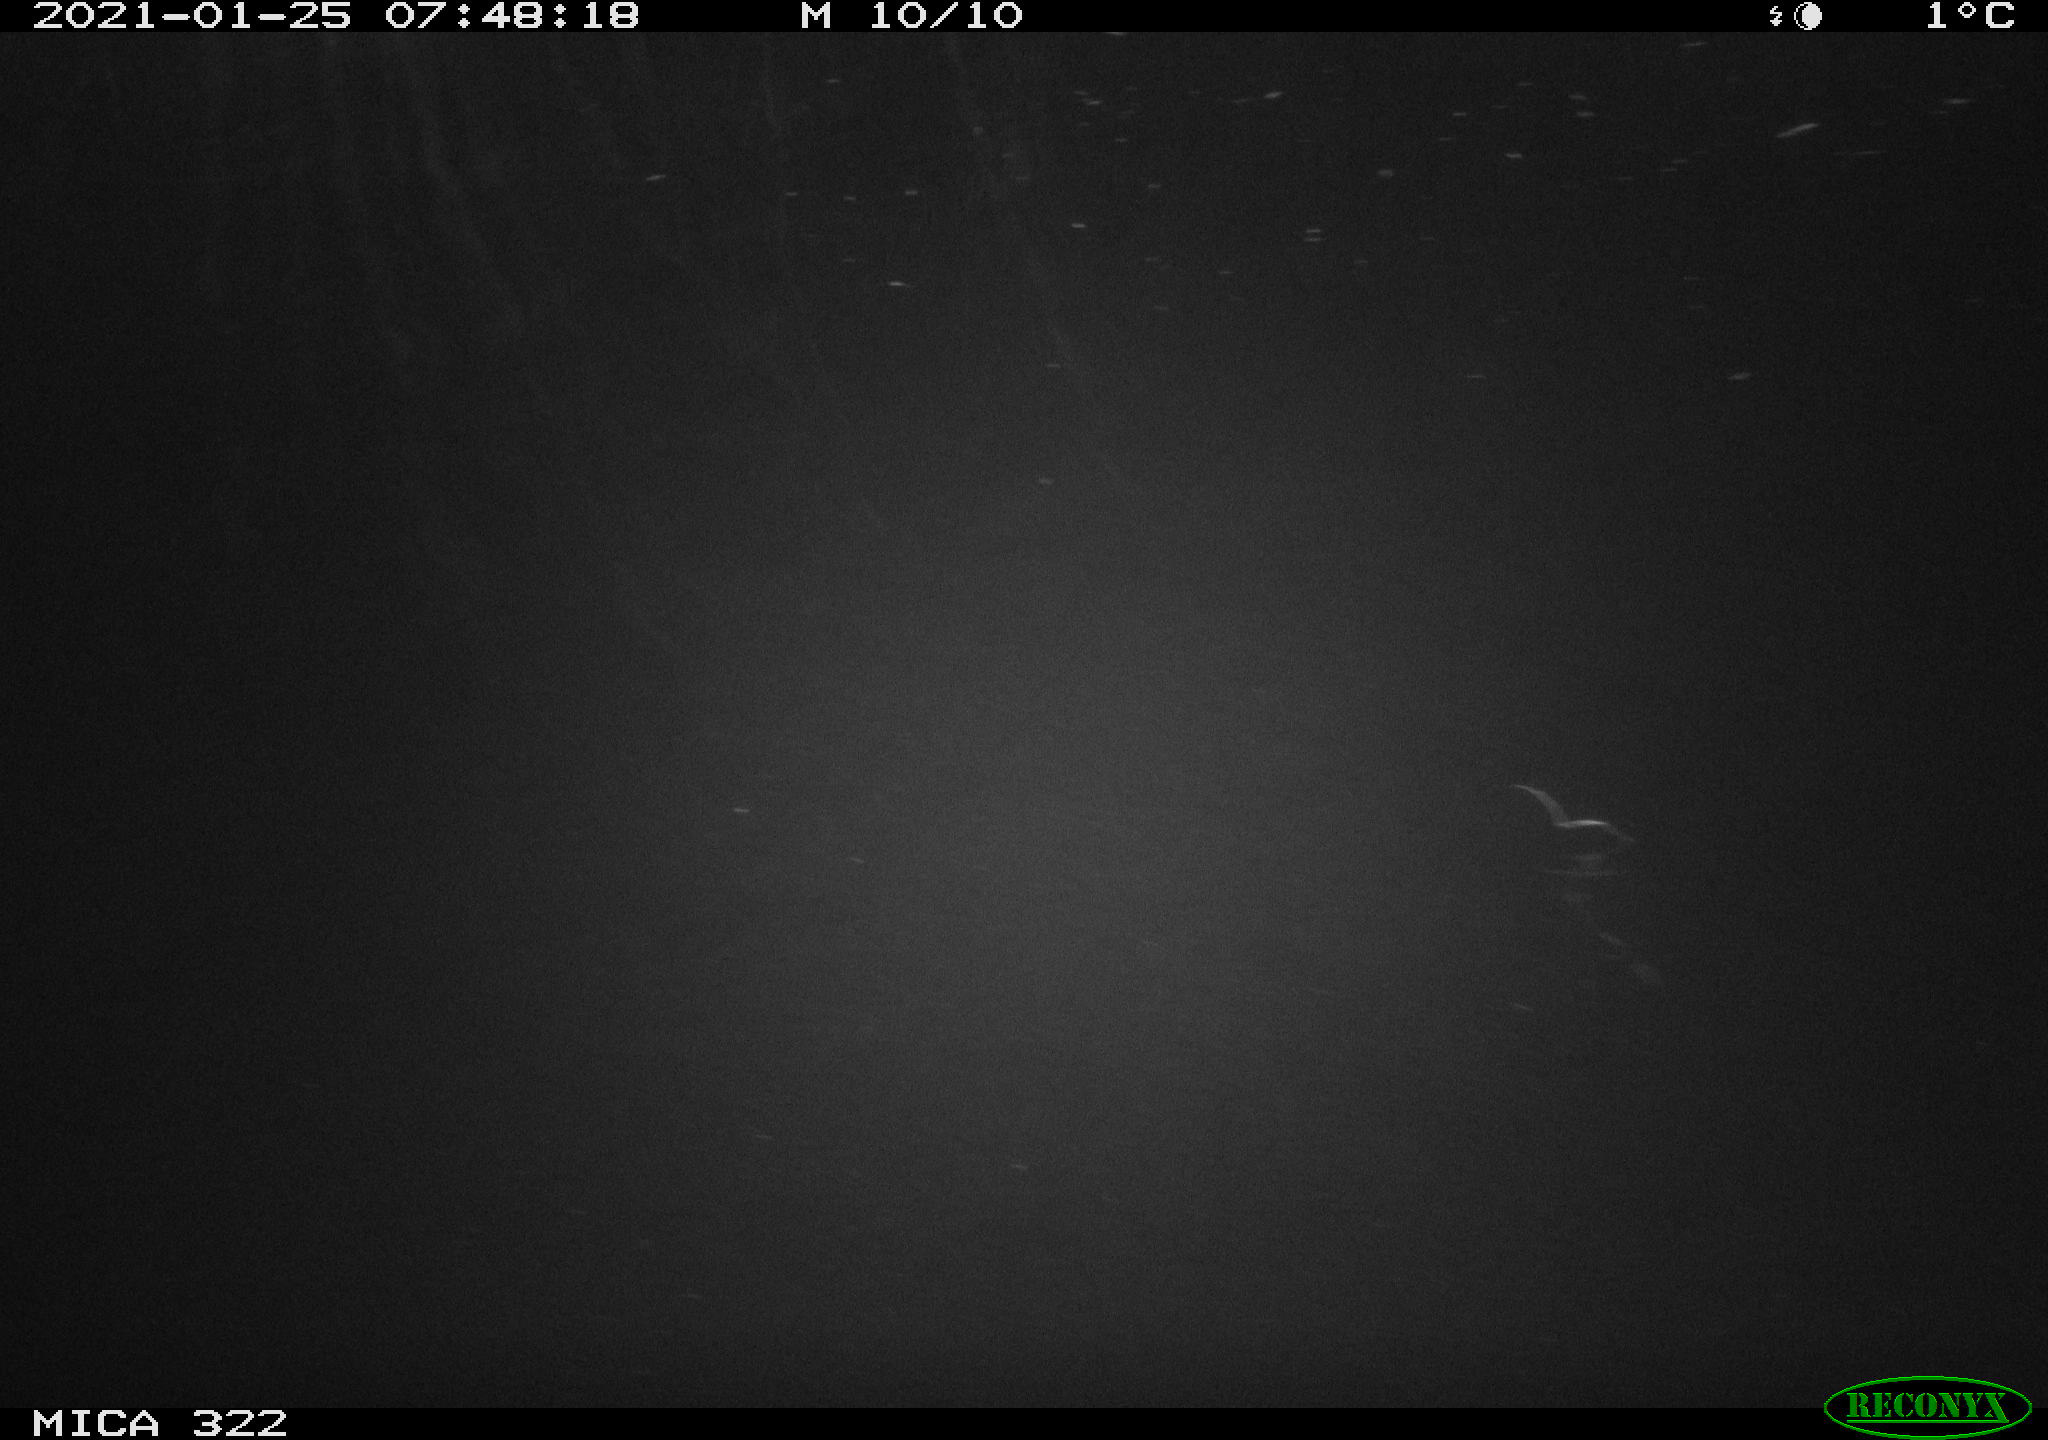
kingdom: Animalia
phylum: Chordata
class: Aves
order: Anseriformes
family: Anatidae
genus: Anas
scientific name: Anas platyrhynchos
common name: Mallard
